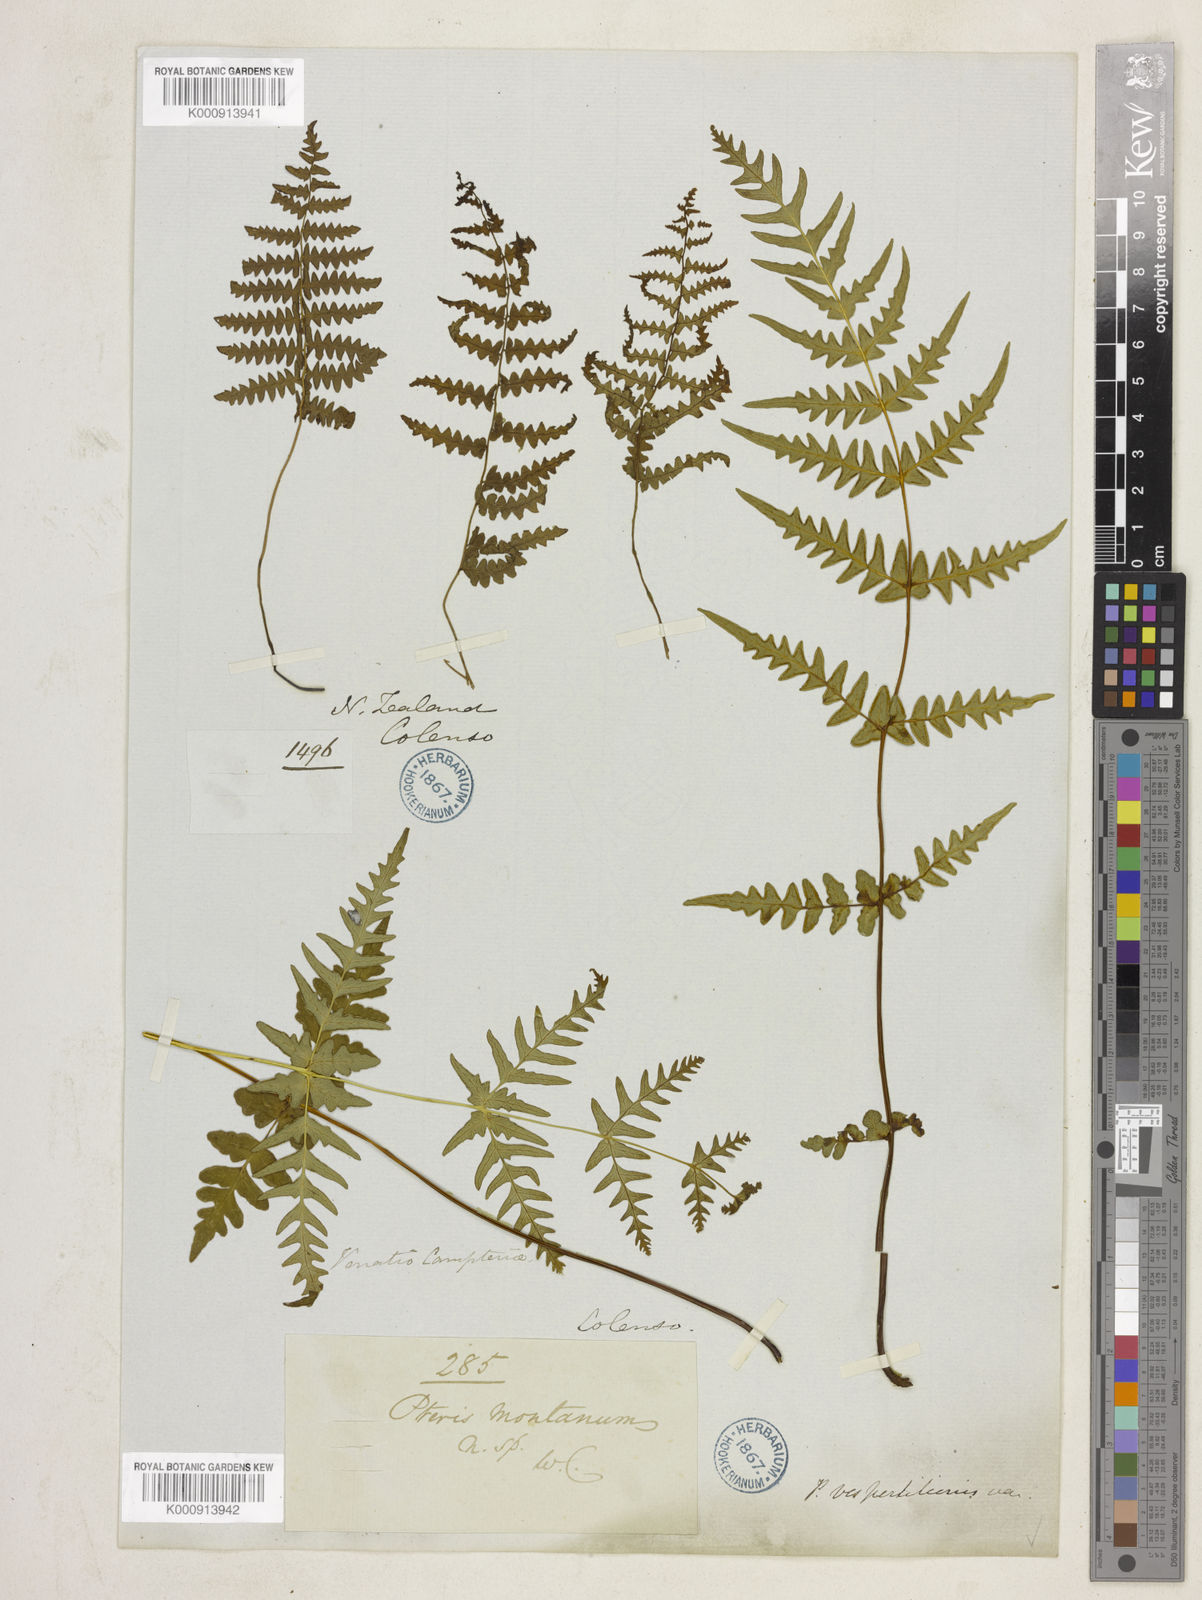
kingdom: Plantae
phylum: Tracheophyta
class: Polypodiopsida
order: Polypodiales
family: Dennstaedtiaceae
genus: Histiopteris
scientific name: Histiopteris incisa
